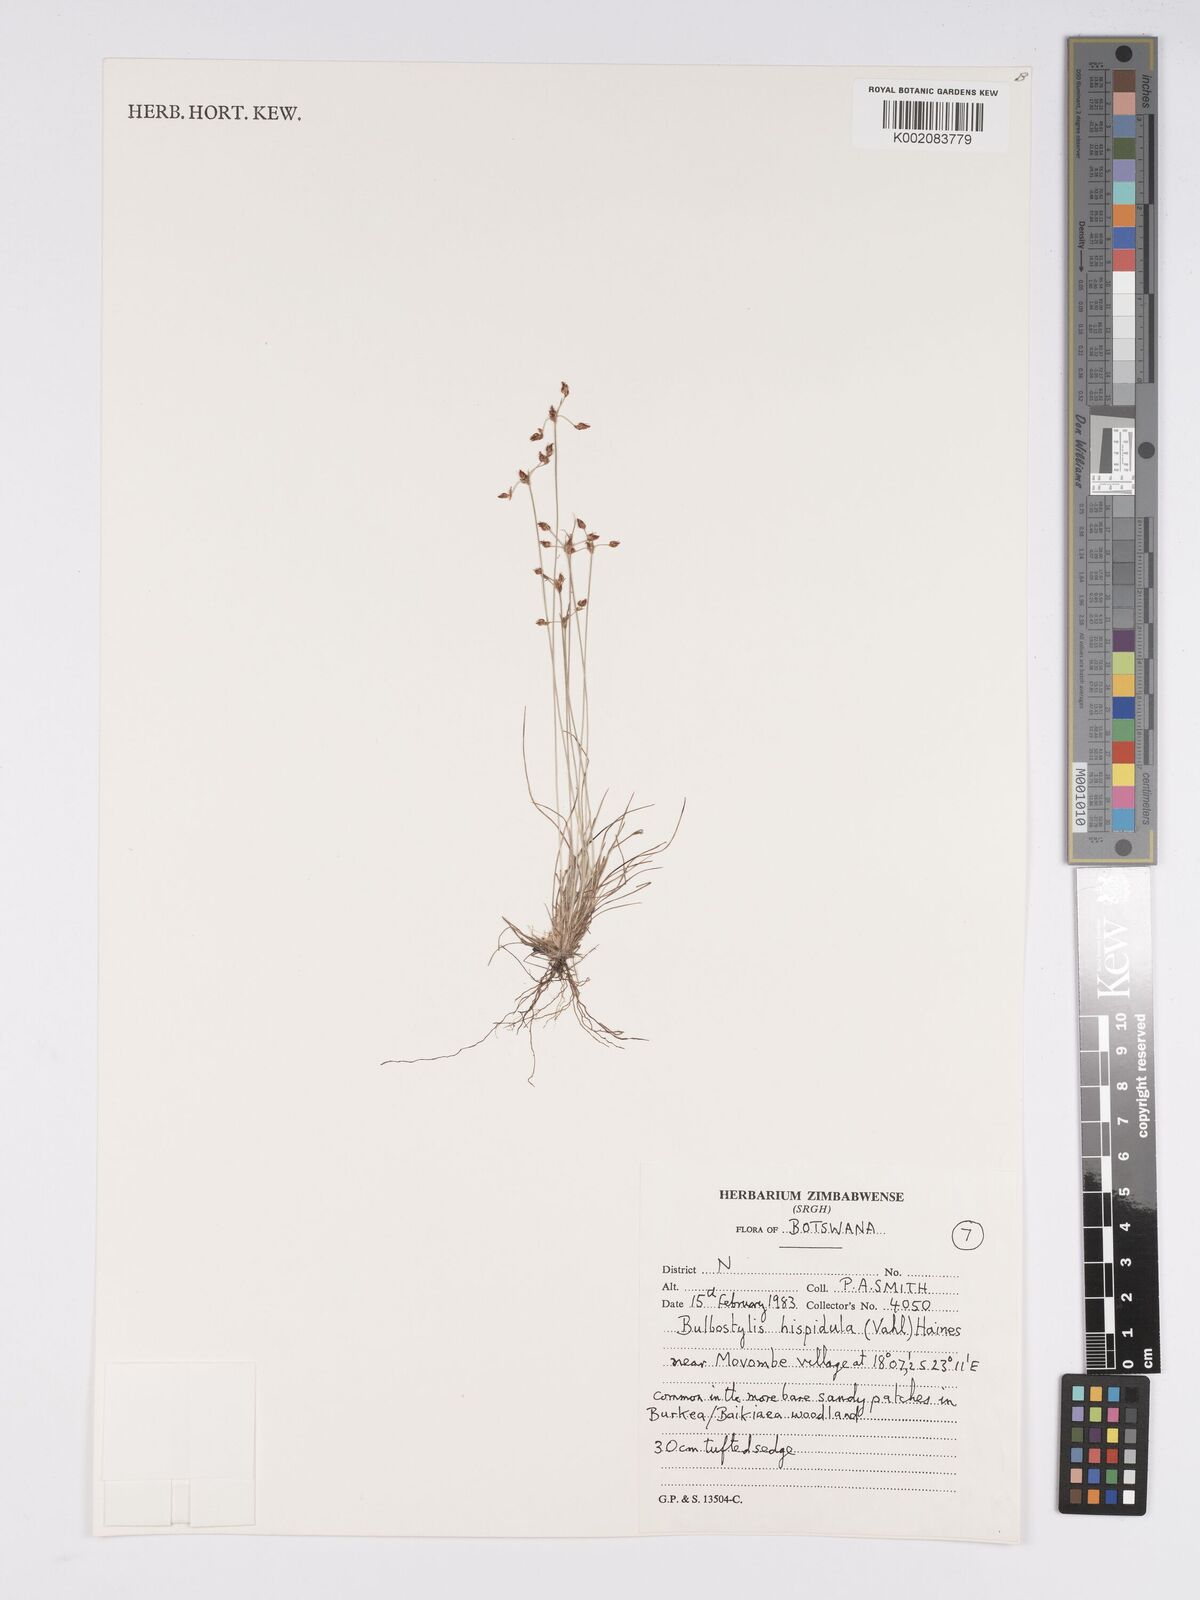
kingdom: Plantae
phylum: Tracheophyta
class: Liliopsida
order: Poales
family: Cyperaceae
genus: Bulbostylis
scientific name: Bulbostylis hispidula
